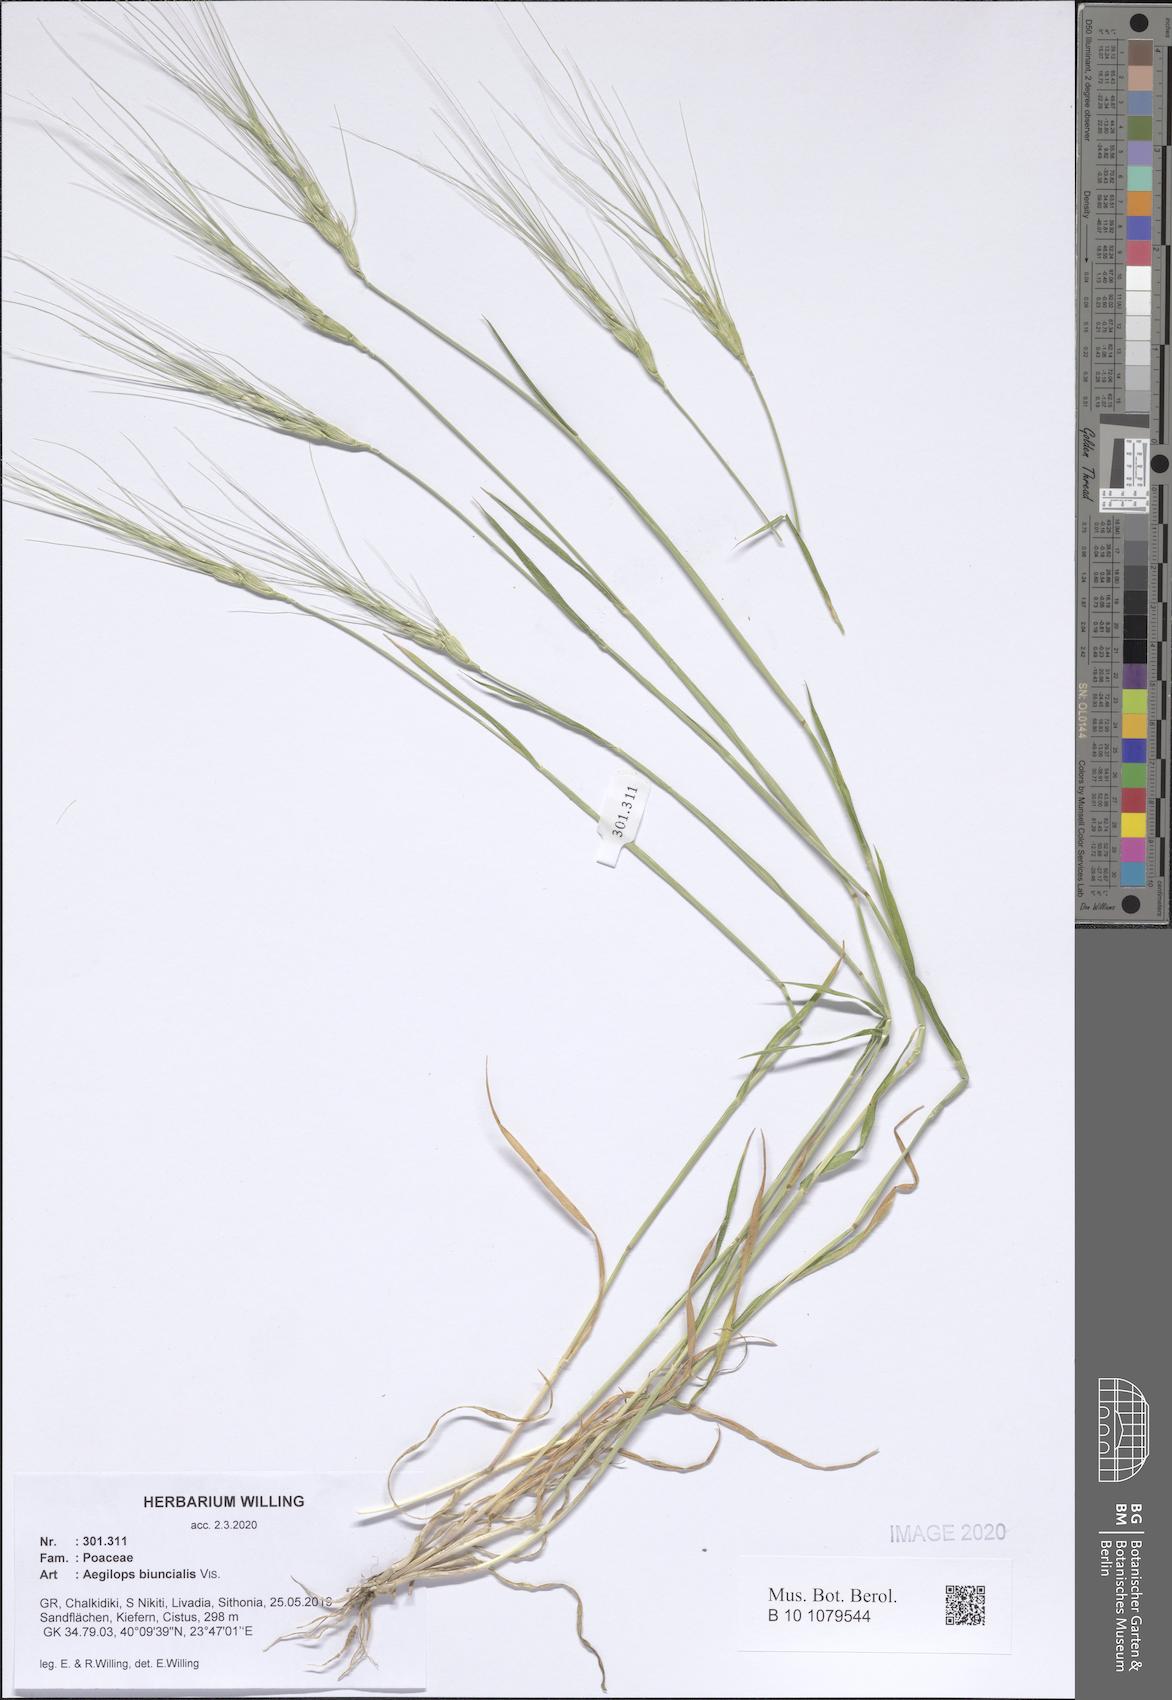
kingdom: Plantae
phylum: Tracheophyta
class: Liliopsida
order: Poales
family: Poaceae
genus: Aegilops
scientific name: Aegilops biuncialis
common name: Mediterranean aegilops
